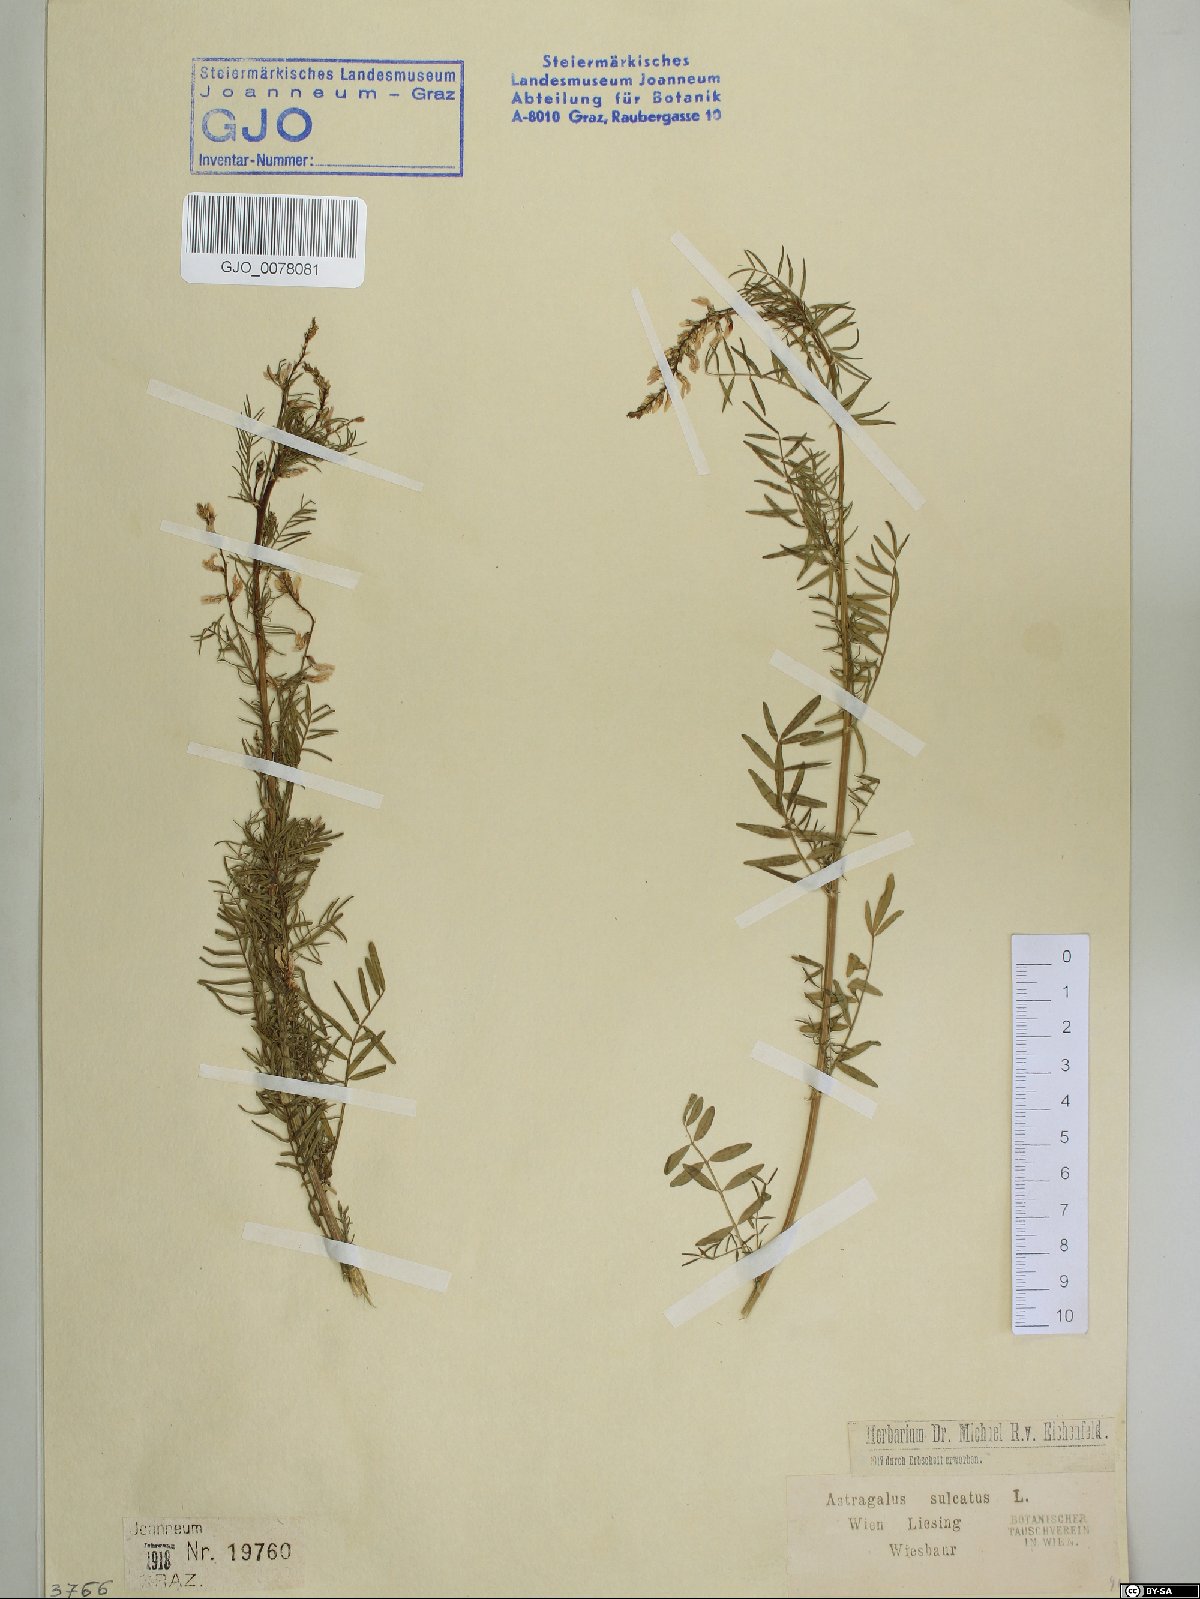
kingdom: Plantae
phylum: Tracheophyta
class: Magnoliopsida
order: Fabales
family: Fabaceae
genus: Astragalus
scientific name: Astragalus sulcatus
